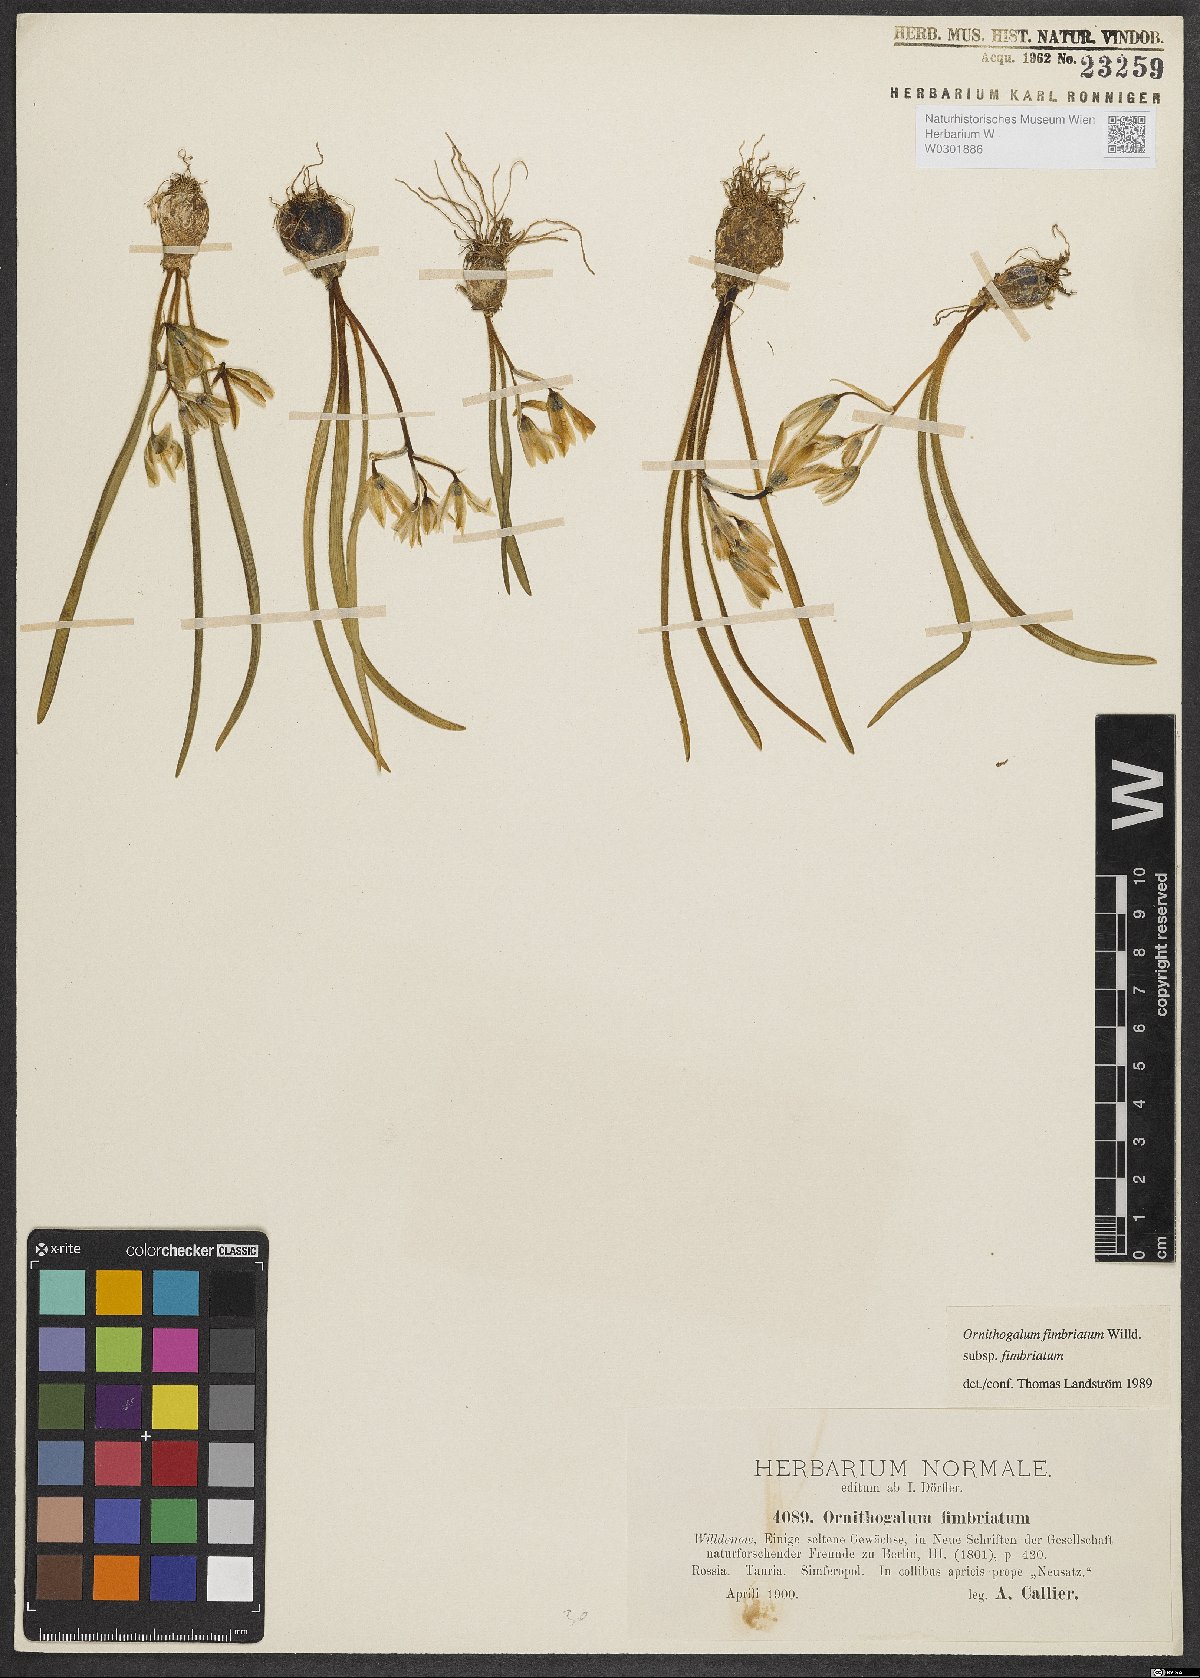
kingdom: Plantae
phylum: Tracheophyta
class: Liliopsida
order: Asparagales
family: Asparagaceae
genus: Ornithogalum
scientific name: Ornithogalum fimbriatum
